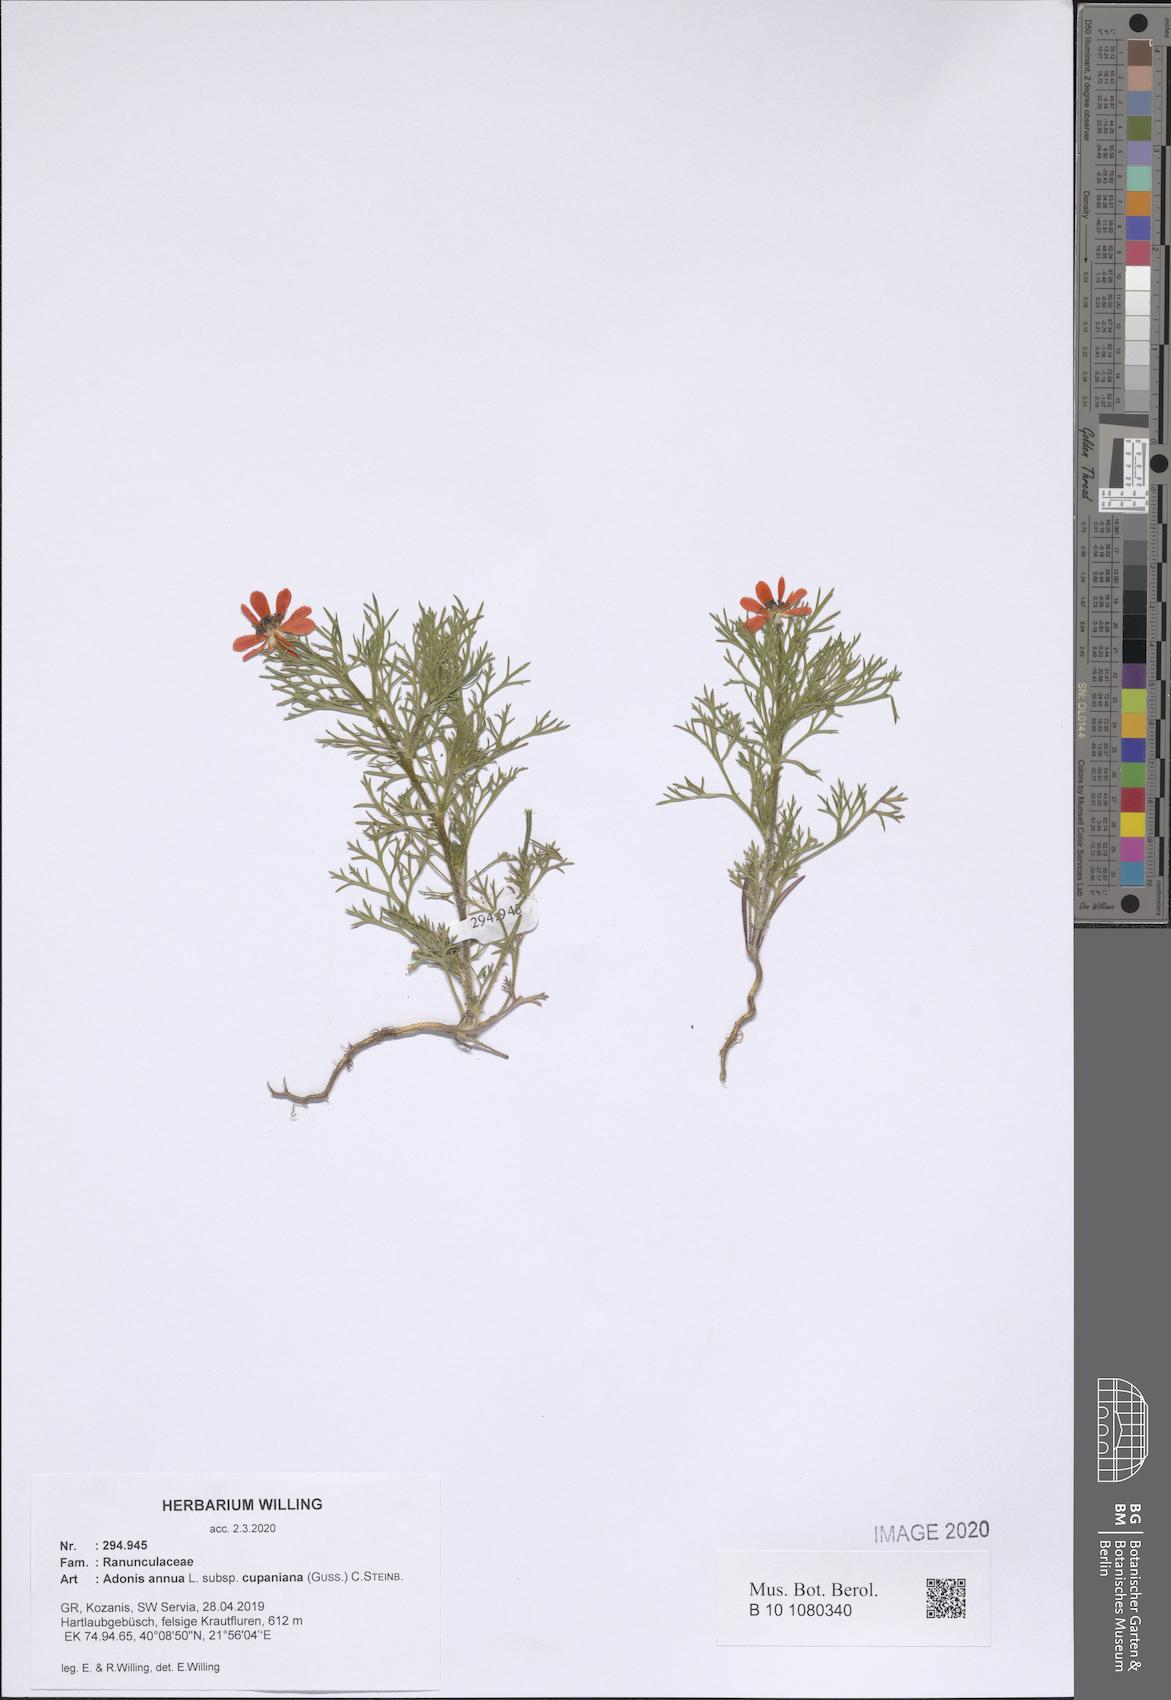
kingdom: Plantae
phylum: Tracheophyta
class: Magnoliopsida
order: Ranunculales
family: Ranunculaceae
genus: Adonis
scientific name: Adonis annua
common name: Pheasant's-eye
